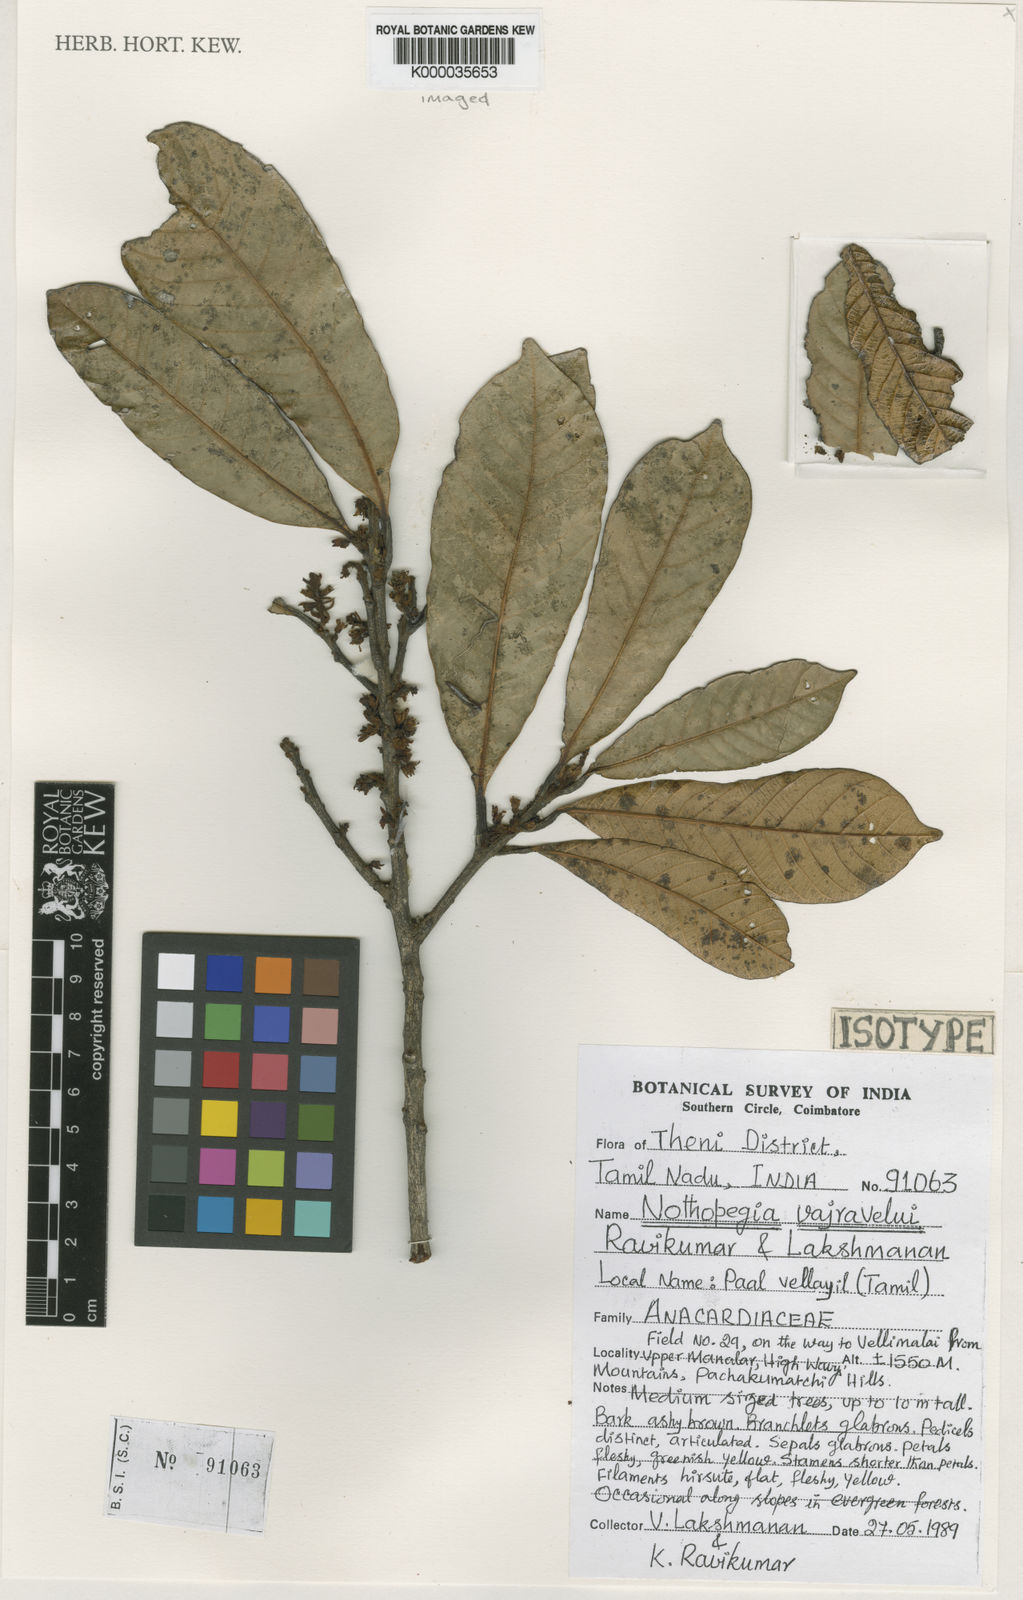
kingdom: Plantae
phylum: Tracheophyta
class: Magnoliopsida
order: Sapindales
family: Anacardiaceae
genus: Nothopegia
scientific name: Nothopegia vajravelui
